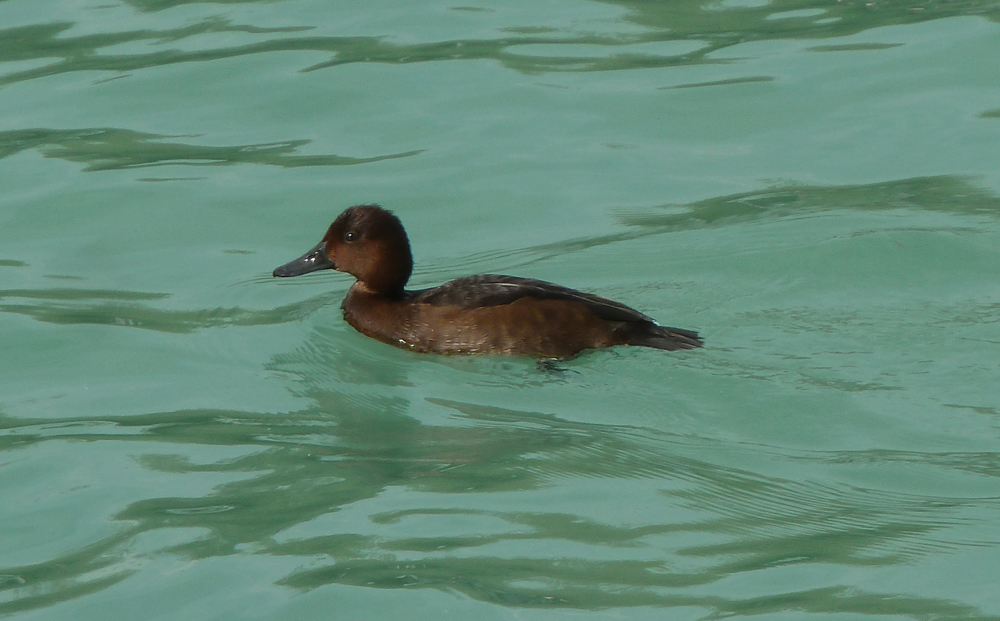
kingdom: Animalia
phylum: Chordata
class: Aves
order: Anseriformes
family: Anatidae
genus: Aythya
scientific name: Aythya nyroca
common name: Ferruginous duck
